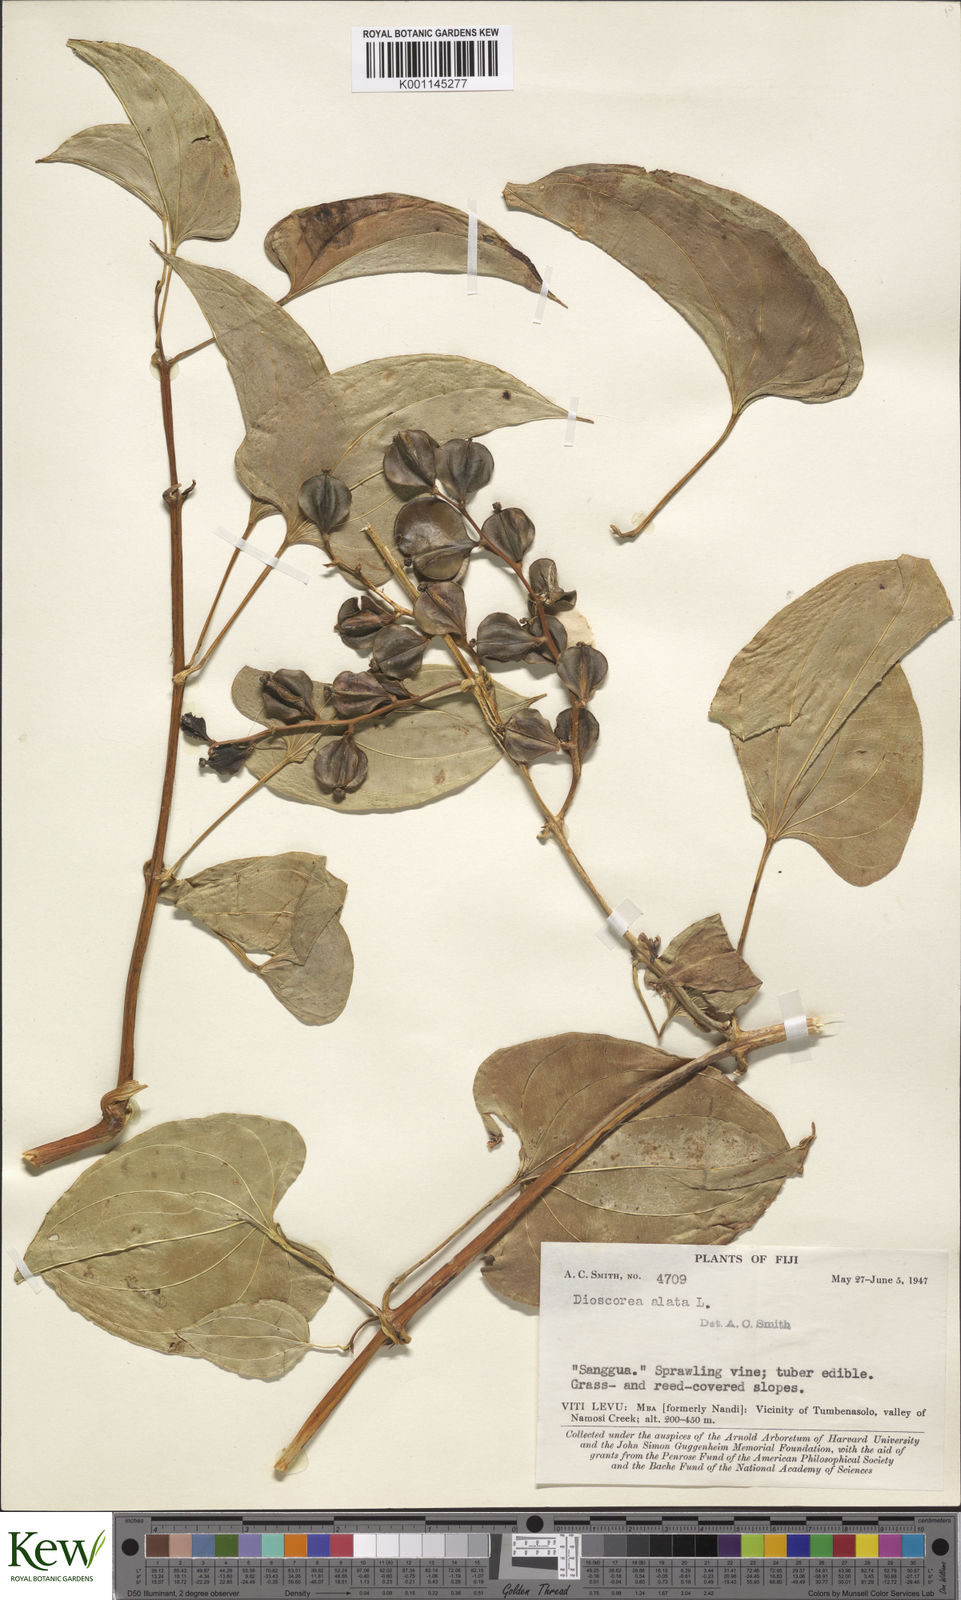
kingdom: Plantae
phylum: Tracheophyta
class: Liliopsida
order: Dioscoreales
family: Dioscoreaceae
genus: Dioscorea
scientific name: Dioscorea alata
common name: Water yam
